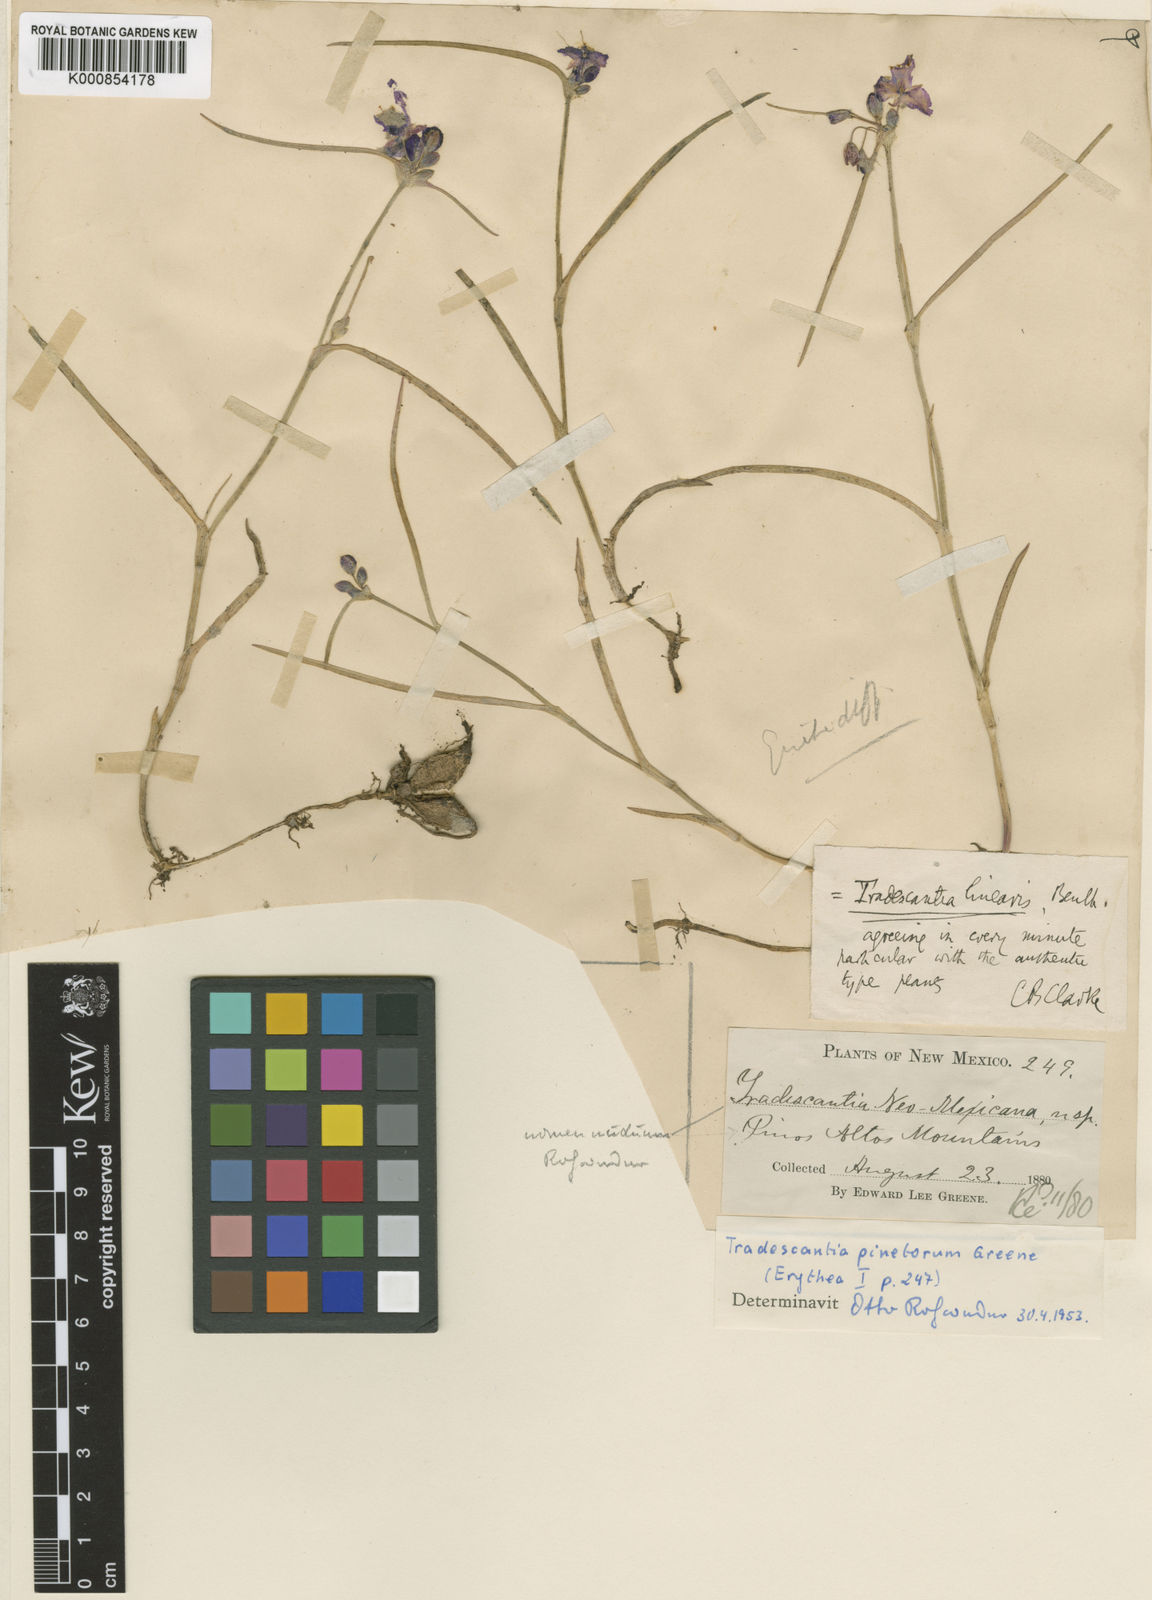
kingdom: Plantae
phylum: Tracheophyta
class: Liliopsida
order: Commelinales
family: Commelinaceae
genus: Tradescantia
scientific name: Tradescantia pinetorum
